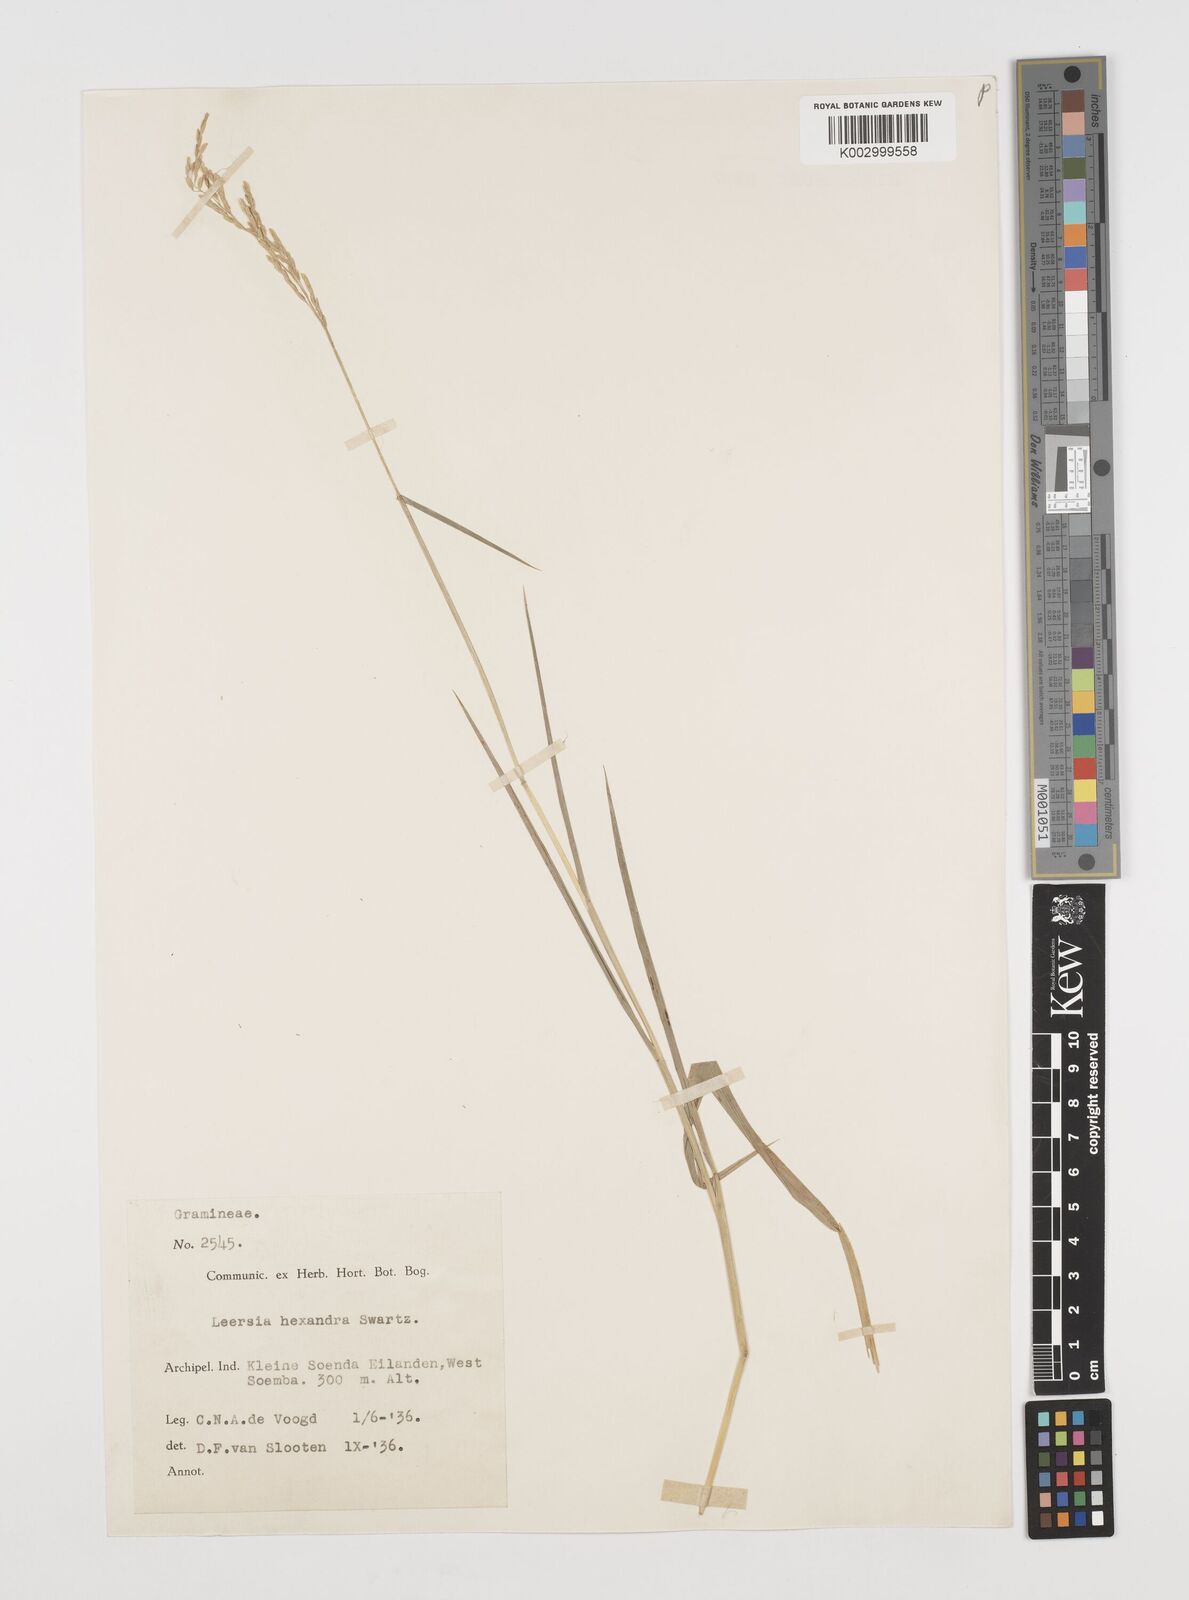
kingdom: Plantae
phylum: Tracheophyta
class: Liliopsida
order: Poales
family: Poaceae
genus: Leersia
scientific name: Leersia hexandra
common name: Southern cut grass
